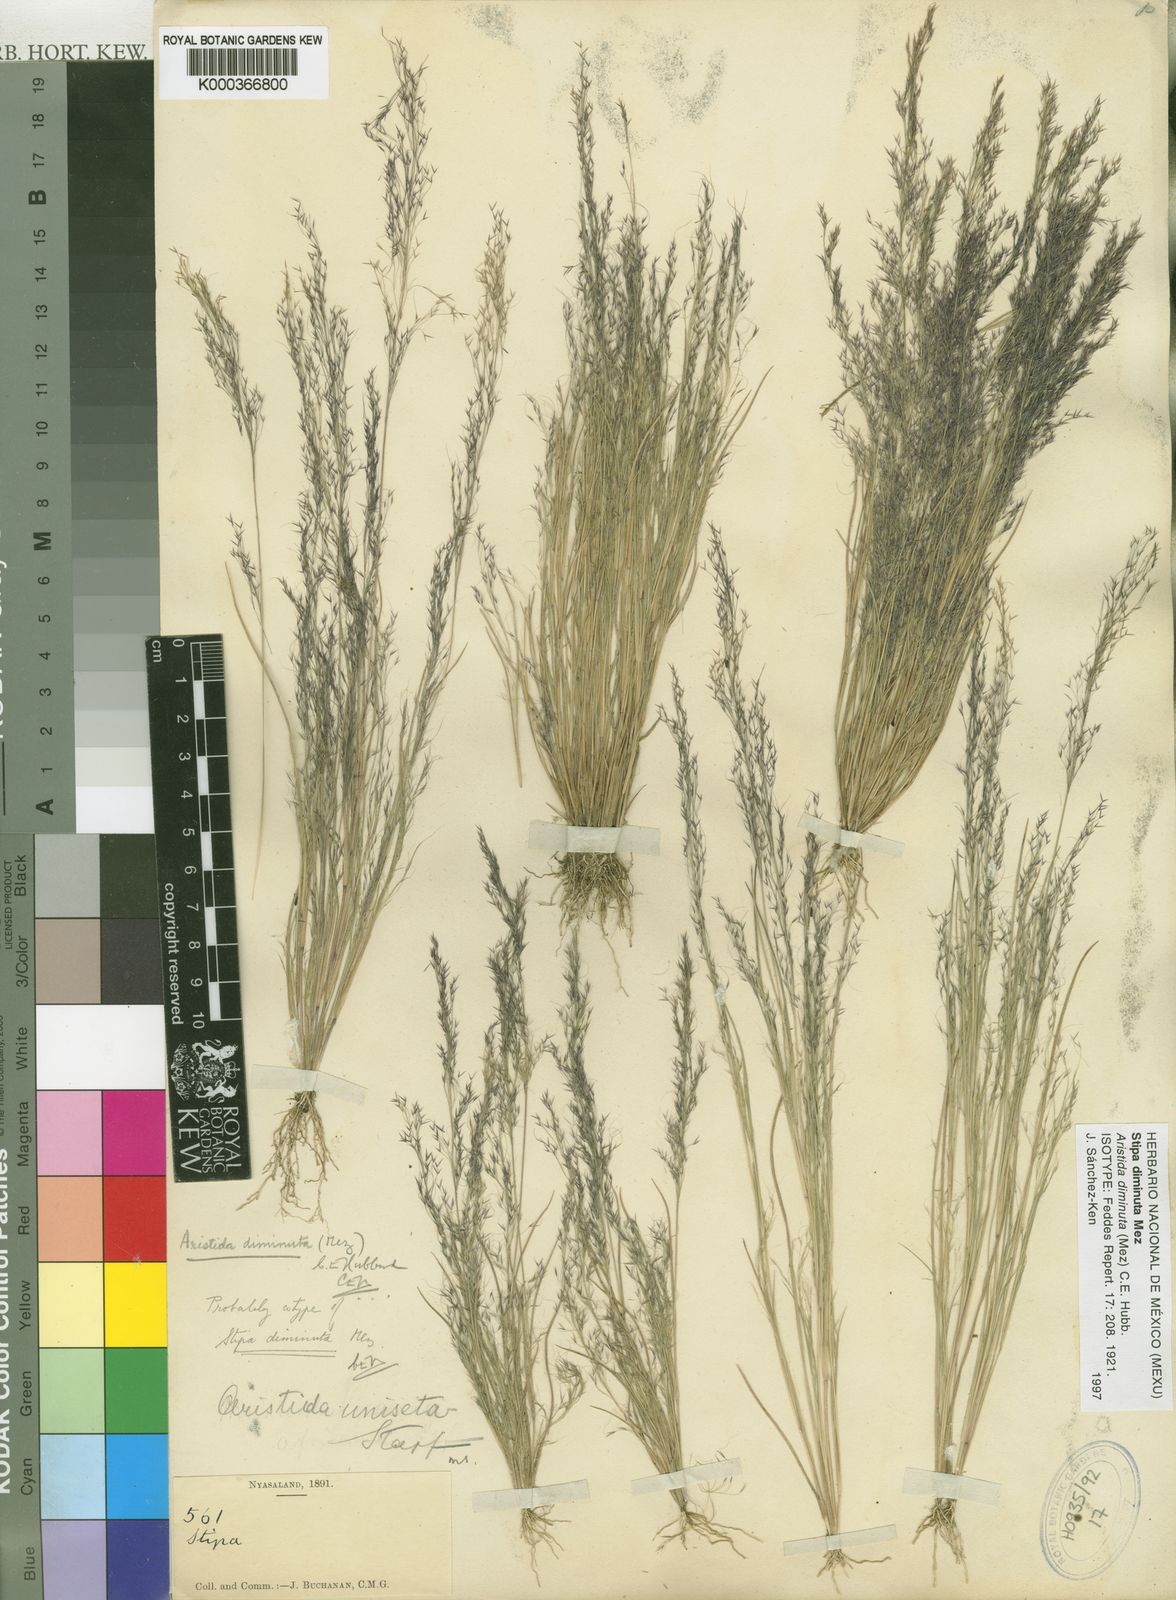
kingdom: Plantae
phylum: Tracheophyta
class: Liliopsida
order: Poales
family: Poaceae
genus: Aristida
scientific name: Aristida diminuta
